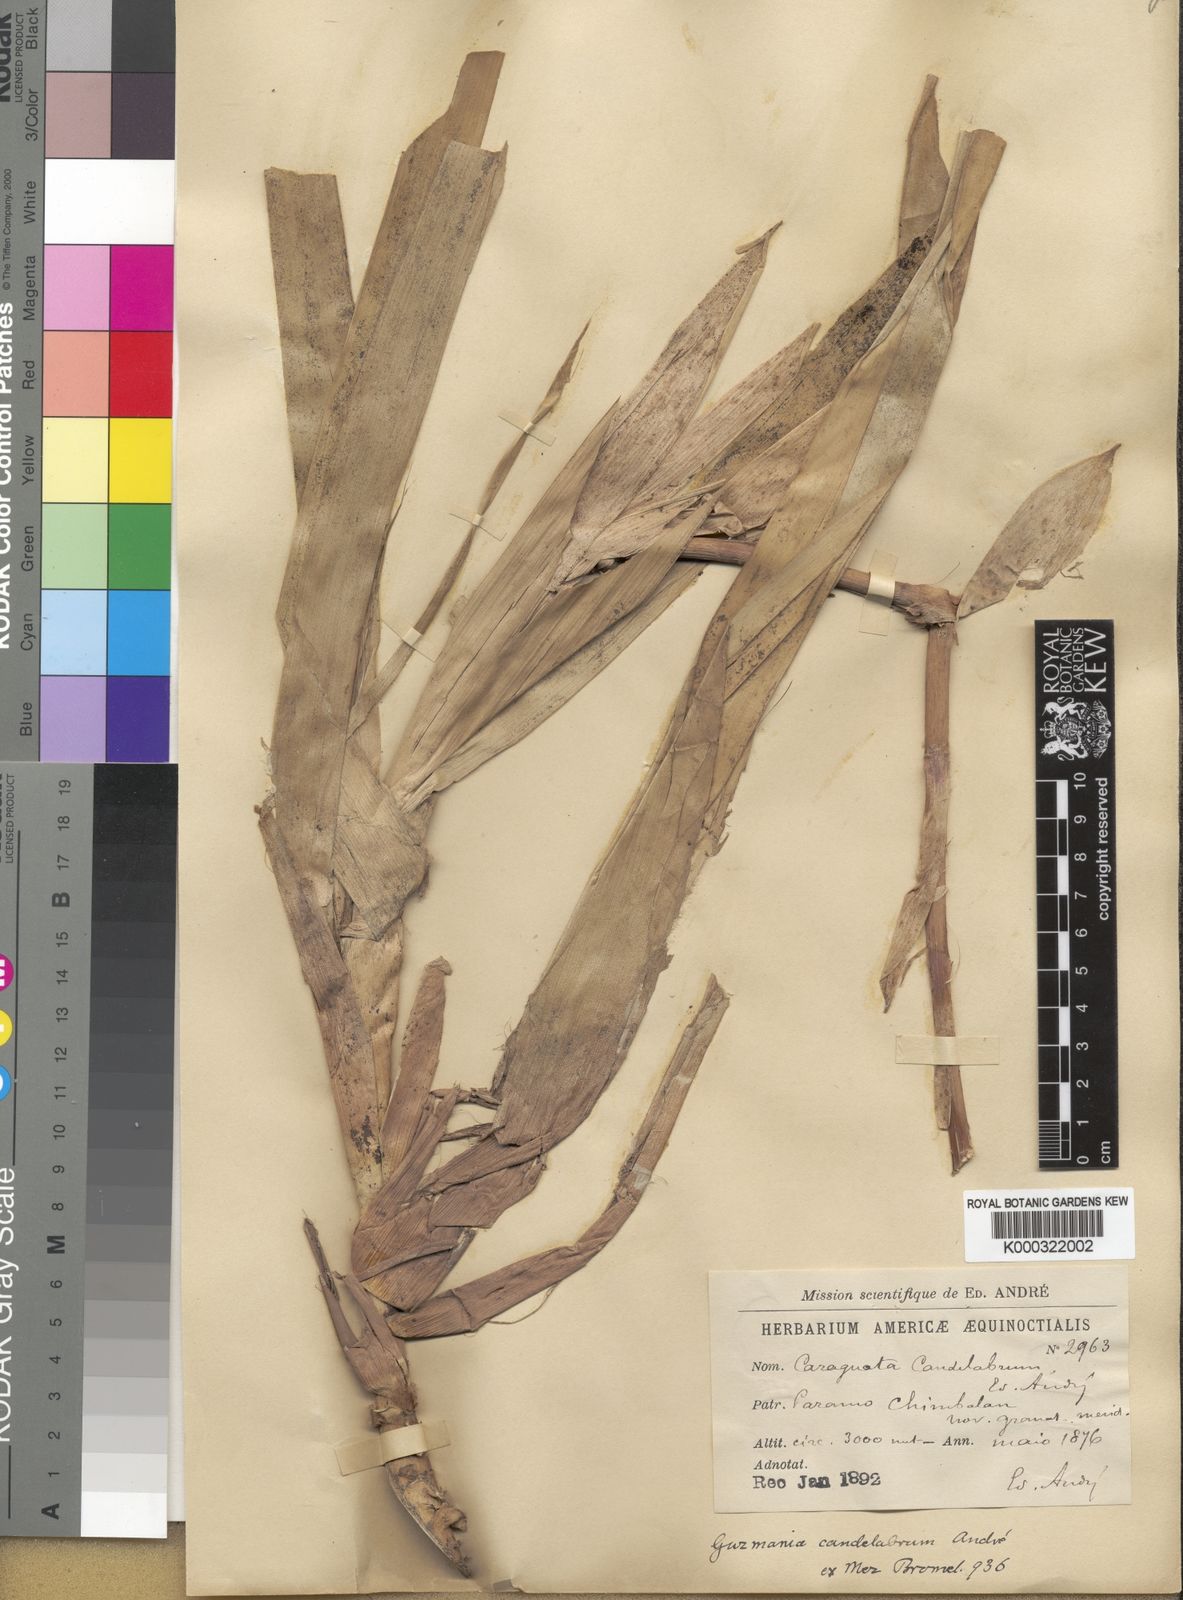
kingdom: Plantae
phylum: Tracheophyta
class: Liliopsida
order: Poales
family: Bromeliaceae
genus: Guzmania
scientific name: Guzmania candelabrum
